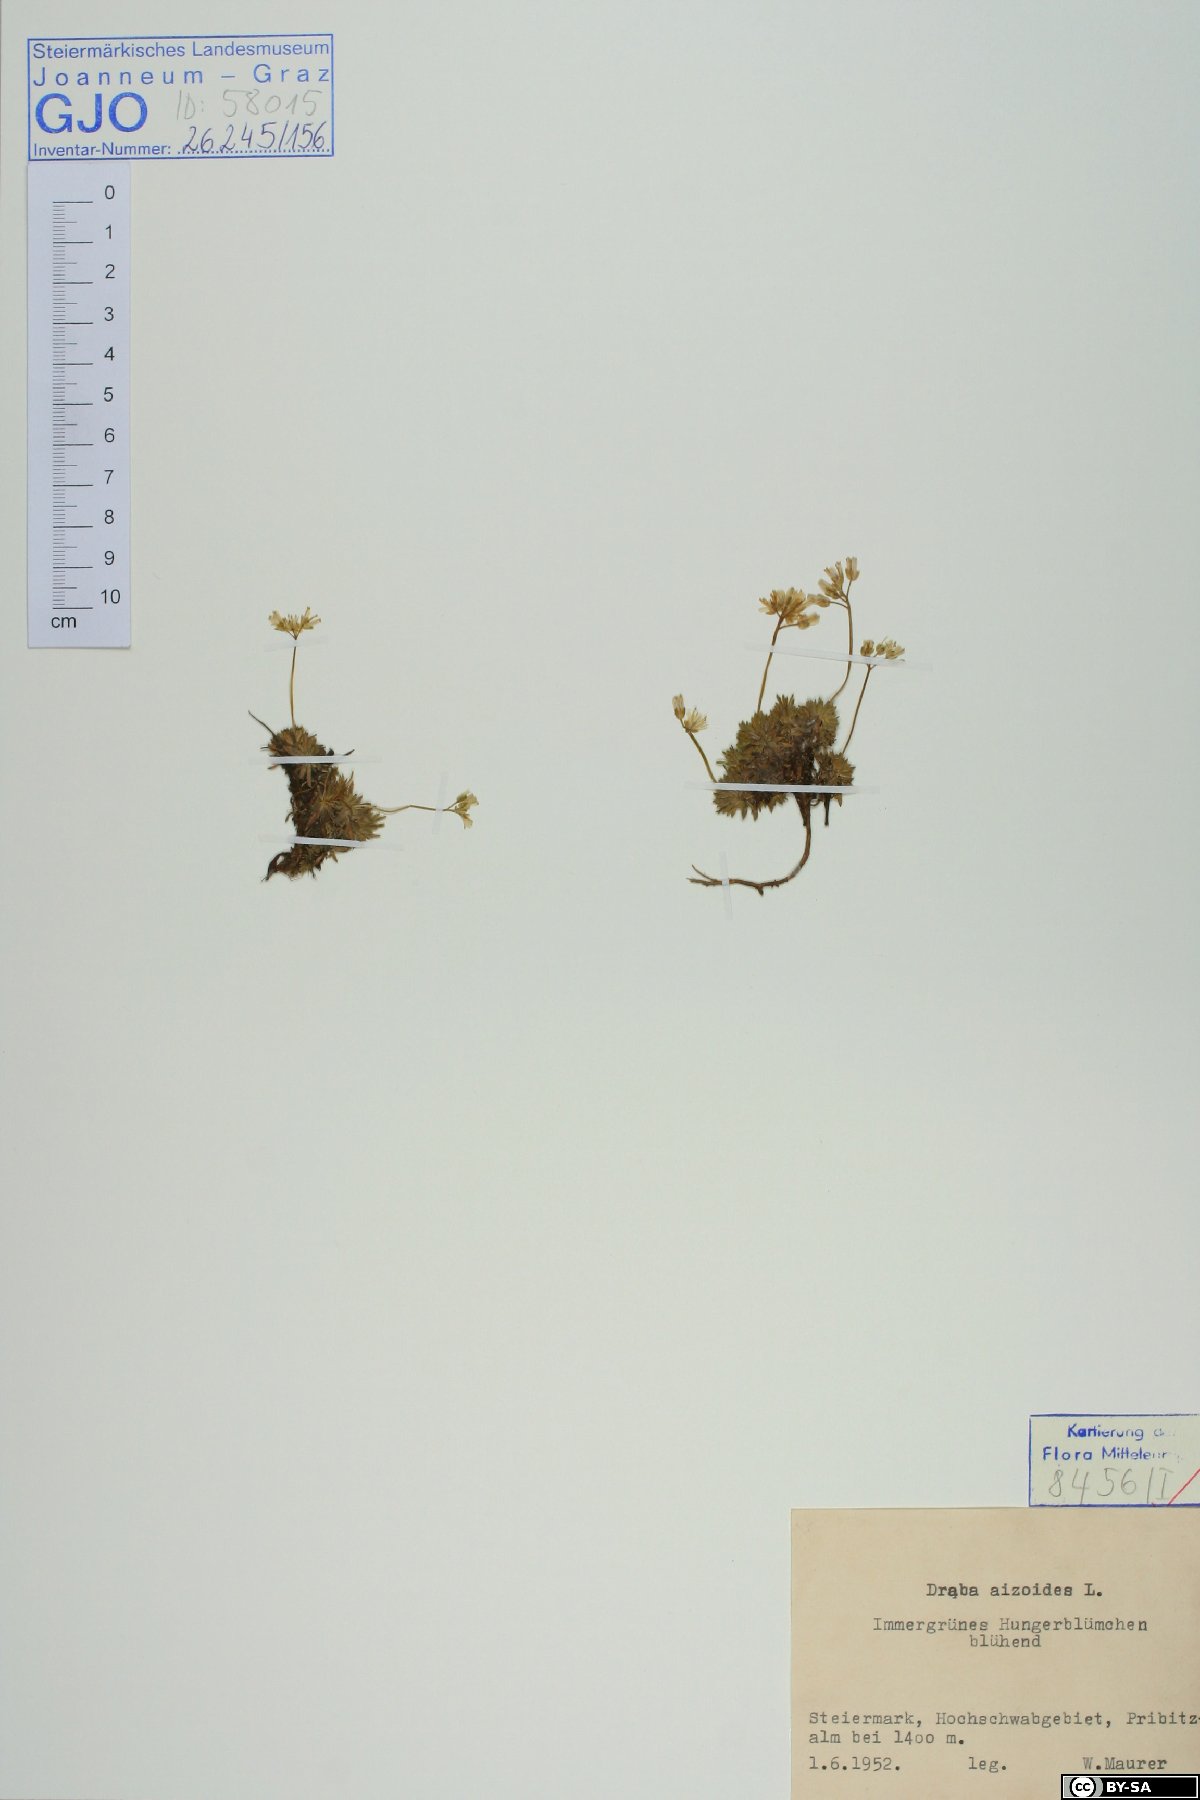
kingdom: Plantae
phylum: Tracheophyta
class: Magnoliopsida
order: Brassicales
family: Brassicaceae
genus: Draba
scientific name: Draba aizoides
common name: Yellow whitlowgrass
